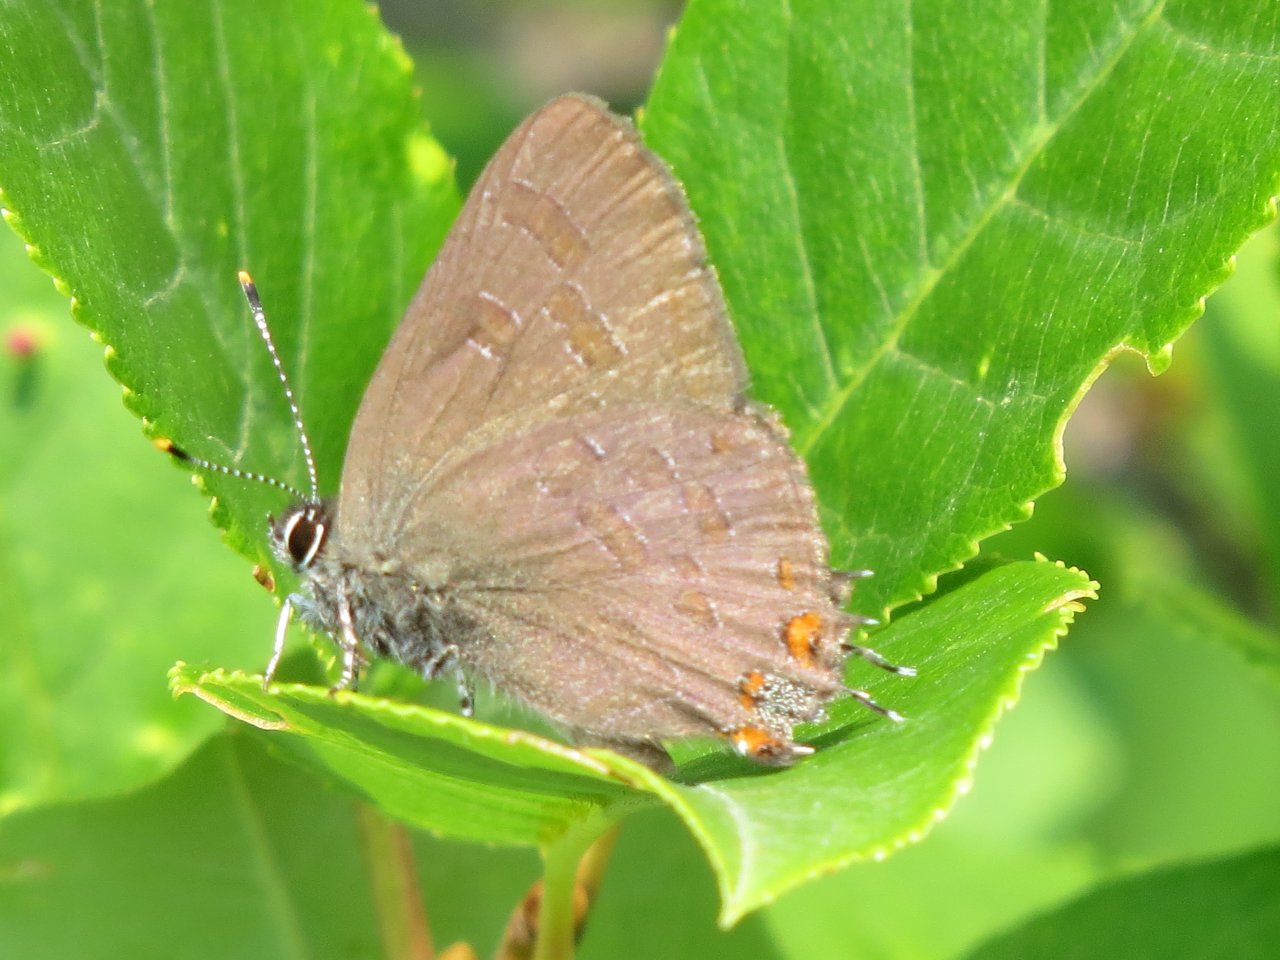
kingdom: Animalia
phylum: Arthropoda
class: Insecta
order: Lepidoptera
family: Lycaenidae
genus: Satyrium
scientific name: Satyrium liparops
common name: Striped Hairstreak
